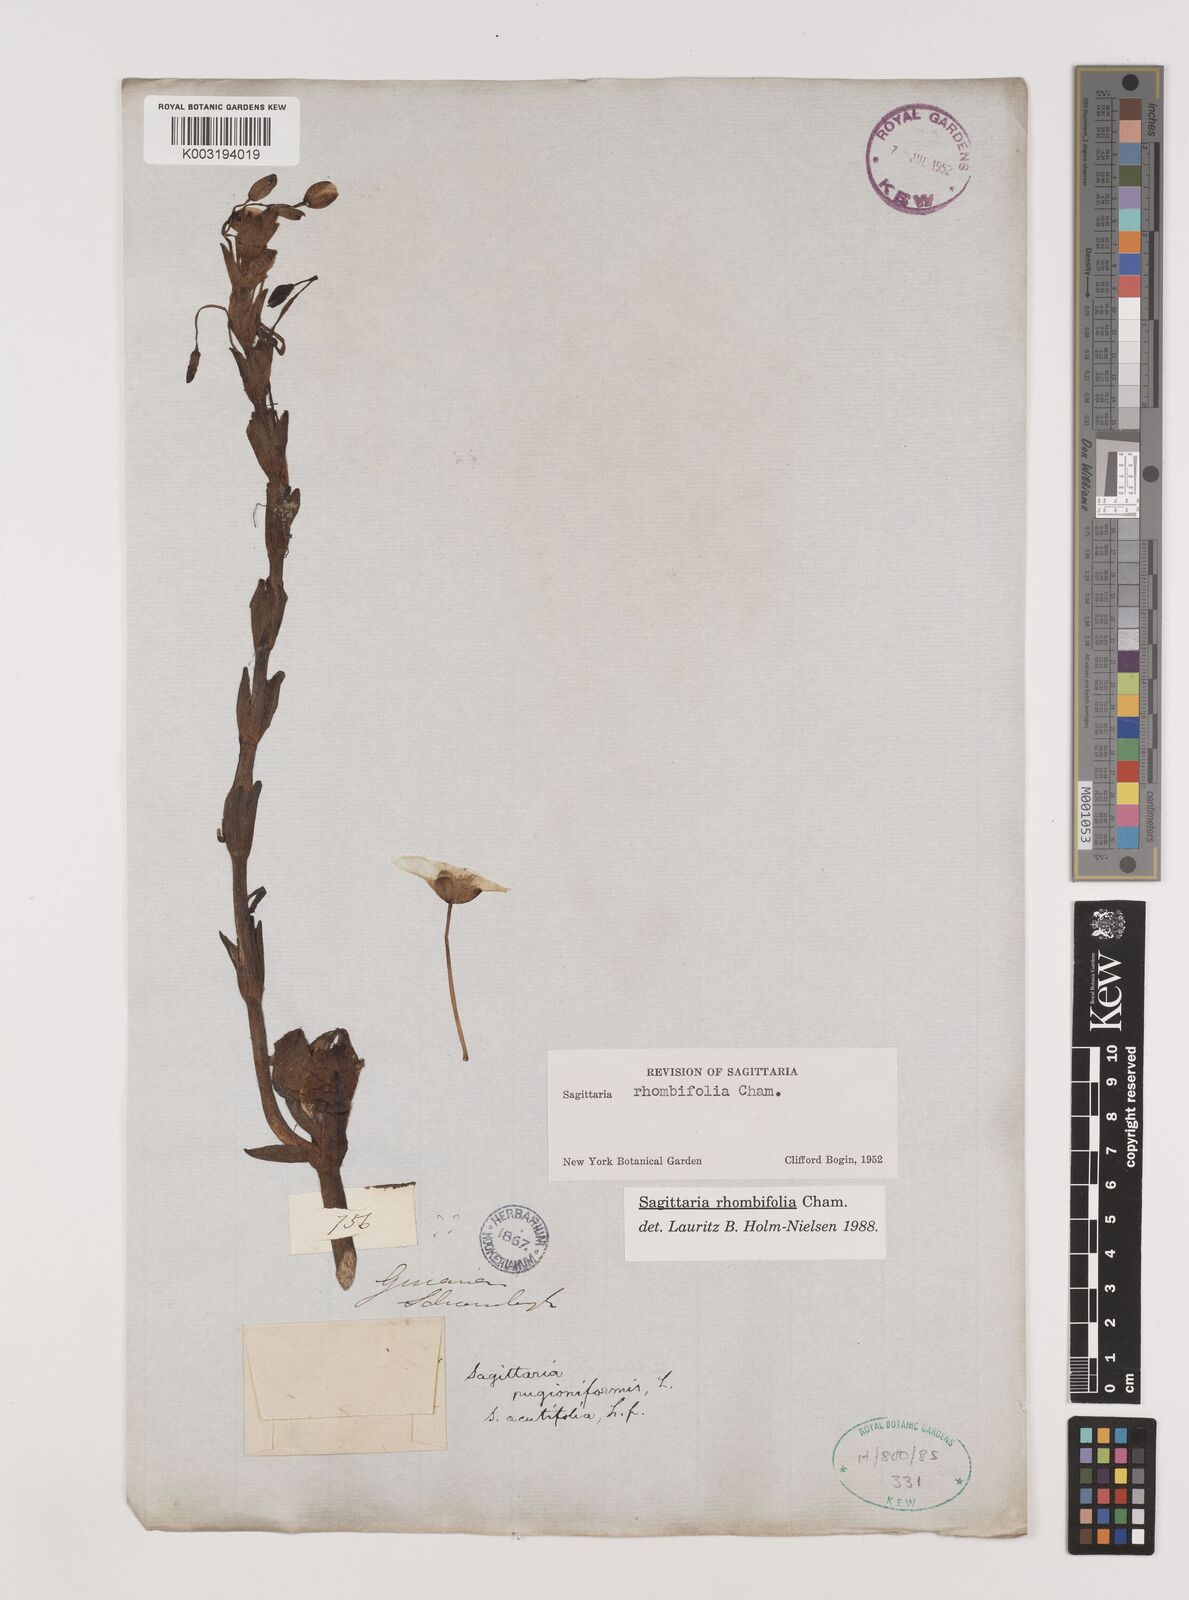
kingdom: Plantae
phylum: Tracheophyta
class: Liliopsida
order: Alismatales
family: Alismataceae
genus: Sagittaria
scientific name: Sagittaria rhombifolia
